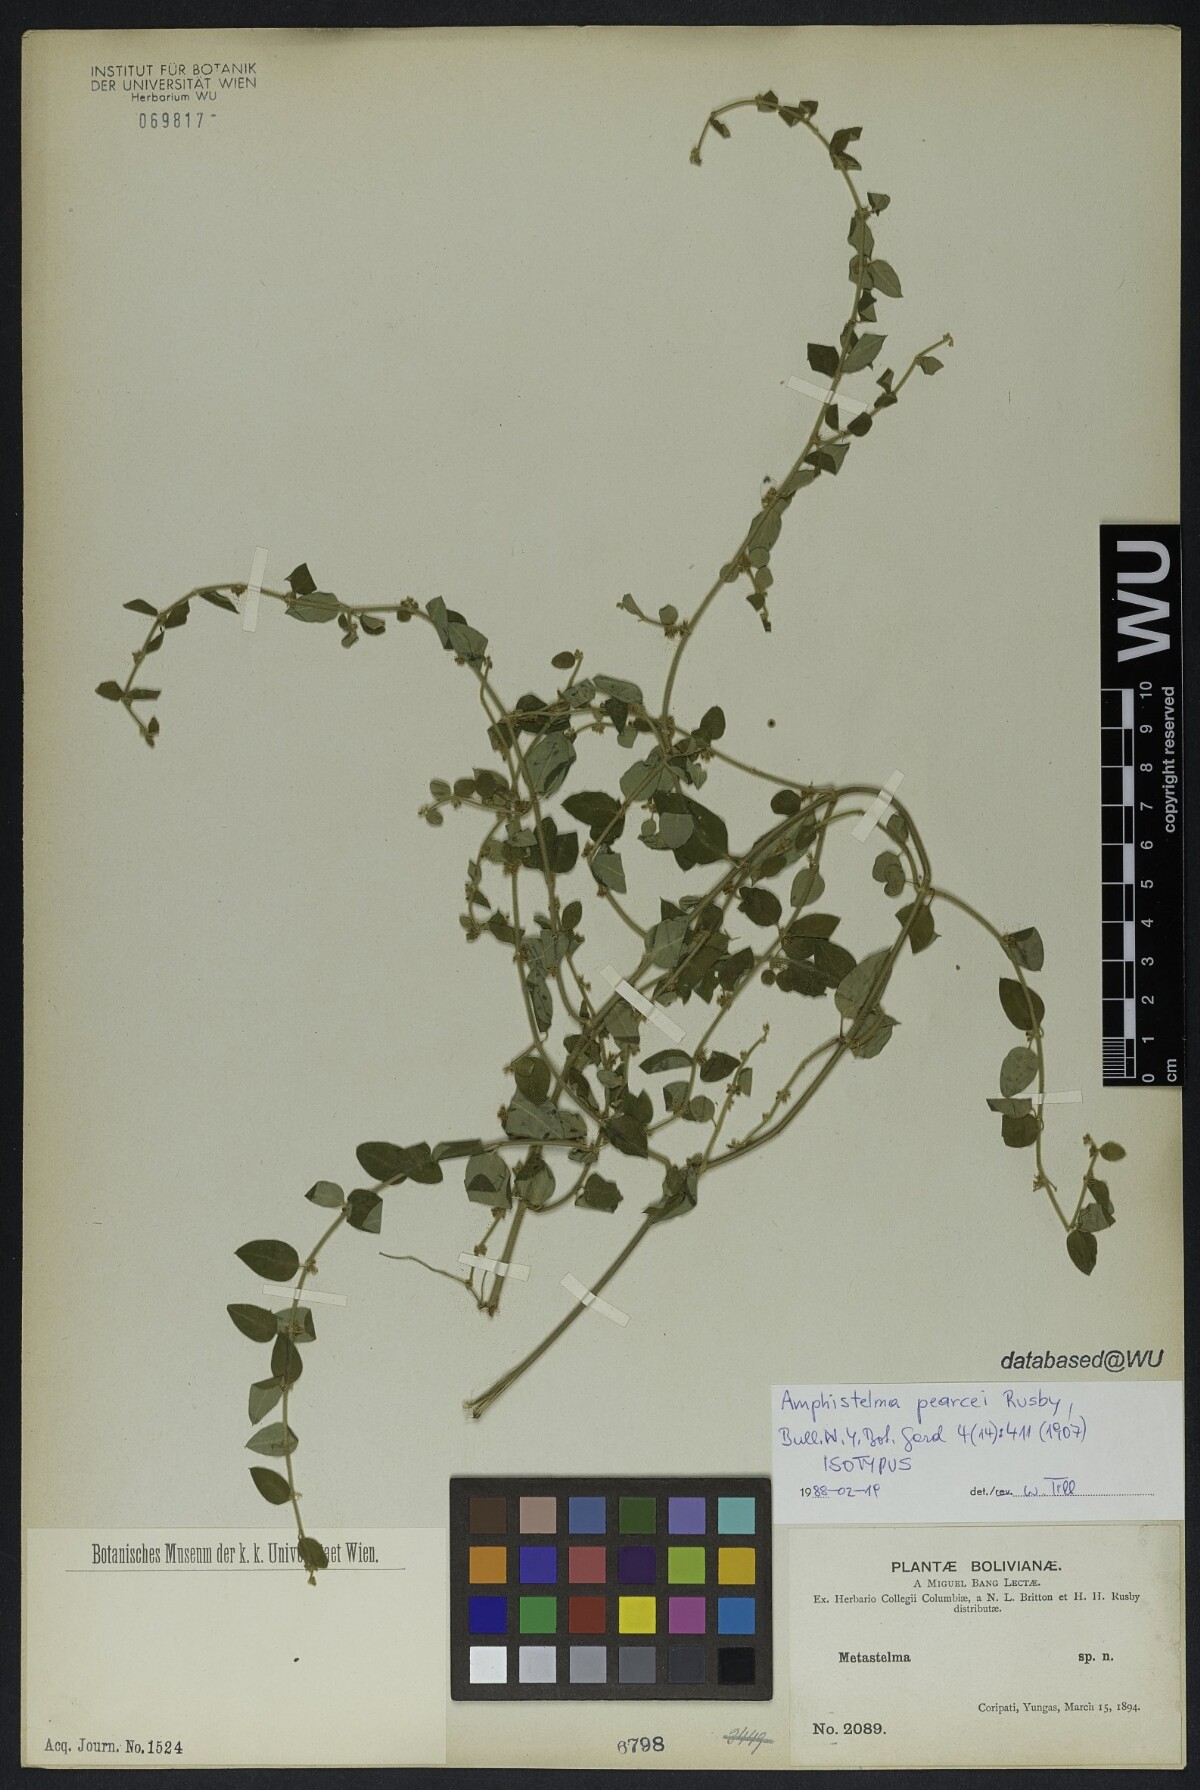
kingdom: Plantae
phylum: Tracheophyta
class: Magnoliopsida
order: Gentianales
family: Apocynaceae
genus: Orthosia
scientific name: Orthosia pearcei
